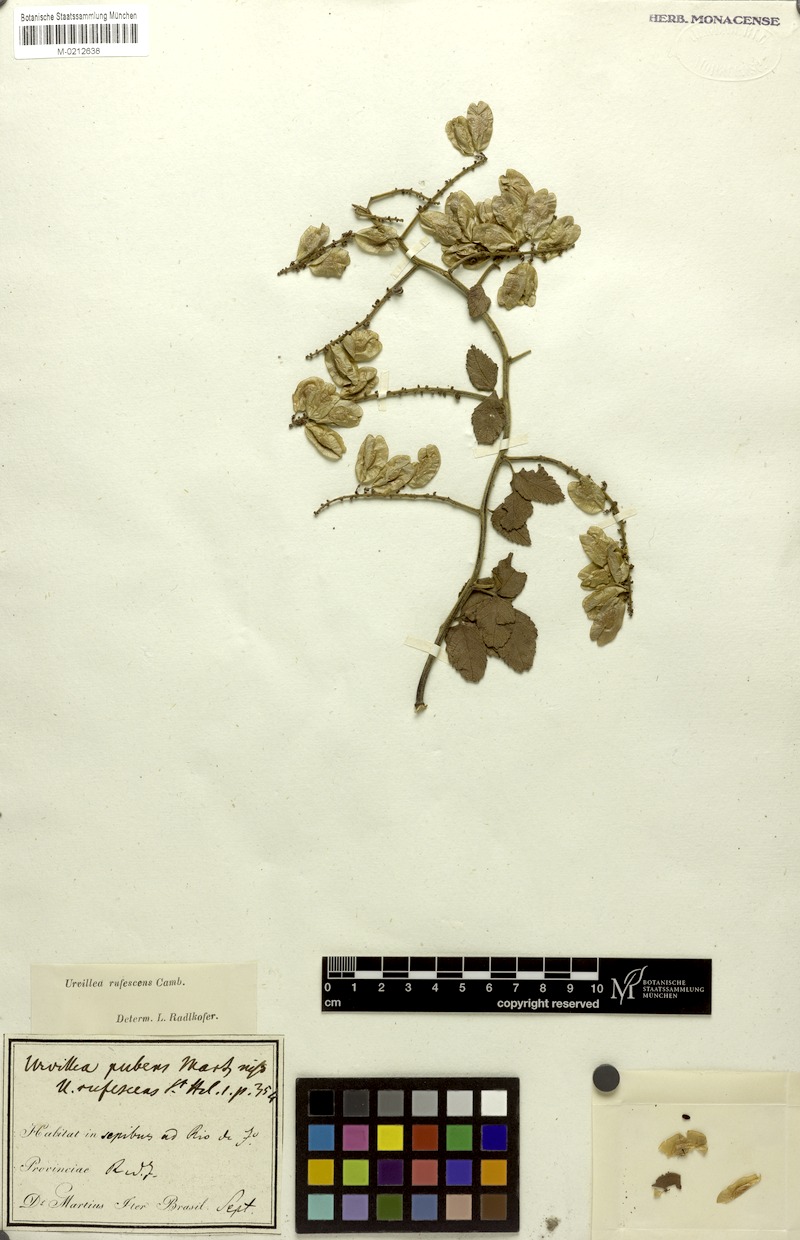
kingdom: Plantae
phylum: Tracheophyta
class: Magnoliopsida
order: Sapindales
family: Sapindaceae
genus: Urvillea
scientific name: Urvillea rufescens
